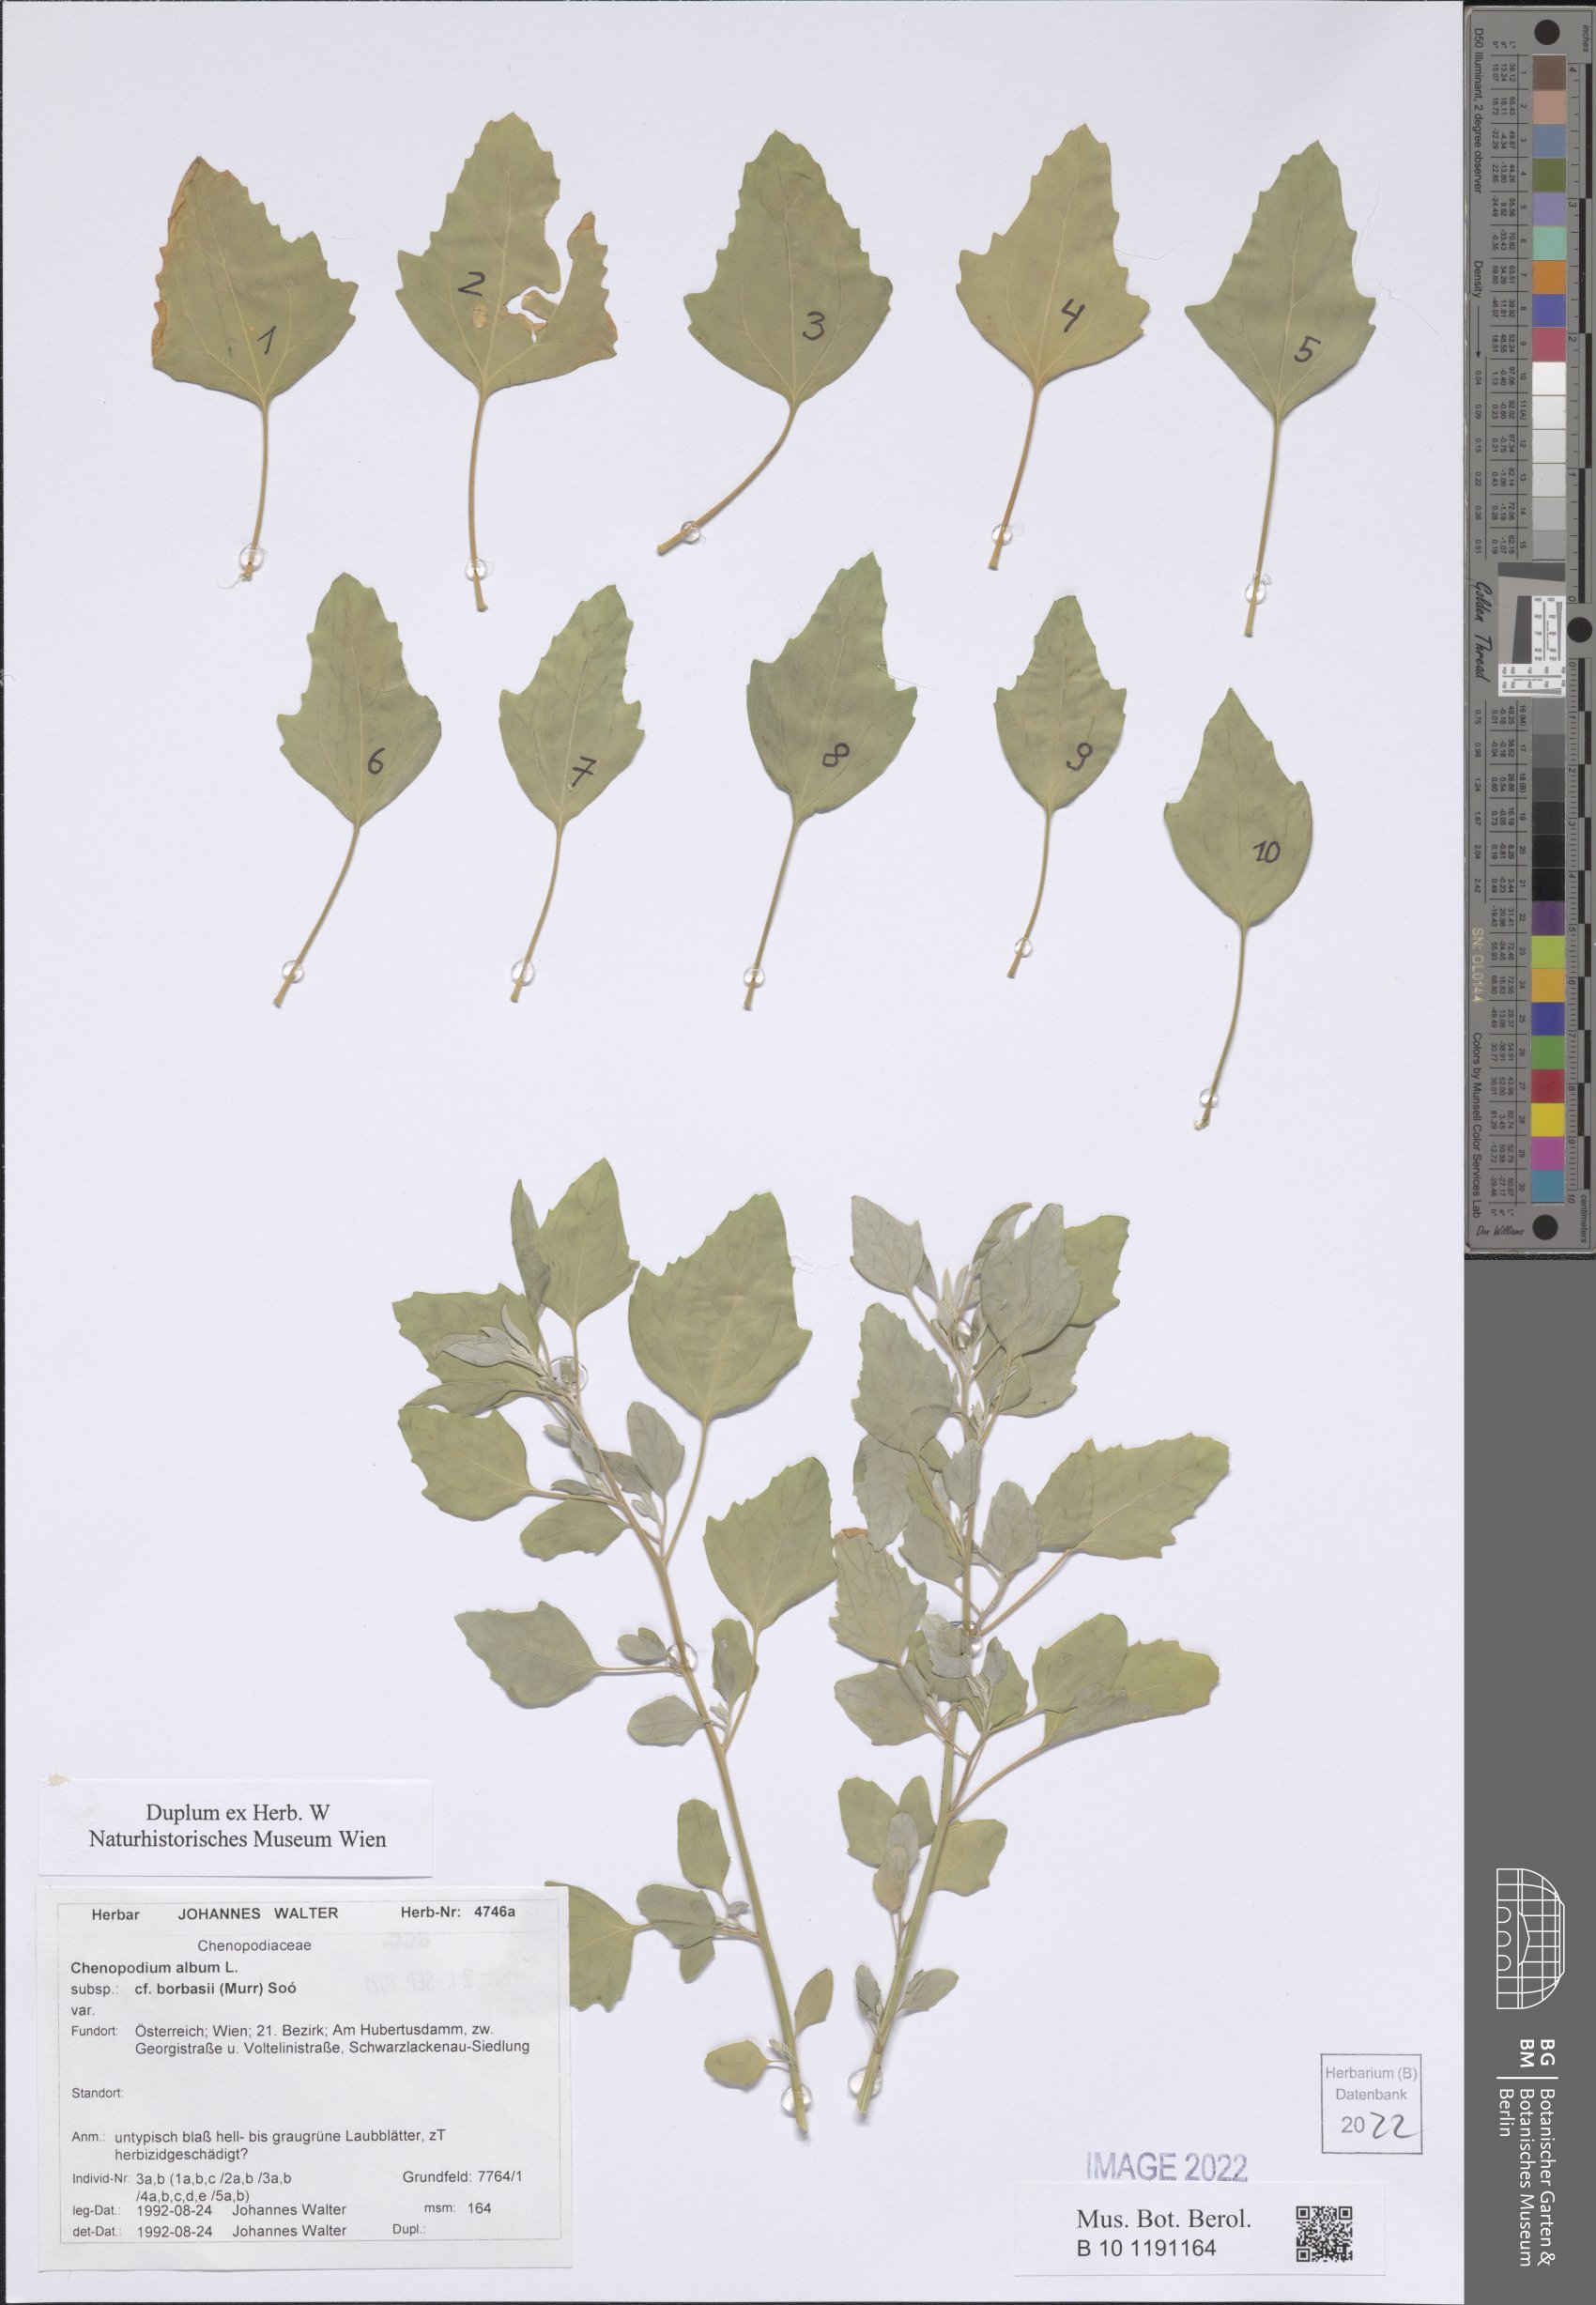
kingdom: Plantae
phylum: Tracheophyta
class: Magnoliopsida
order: Caryophyllales
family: Amaranthaceae
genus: Chenopodium
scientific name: Chenopodium borbasii
